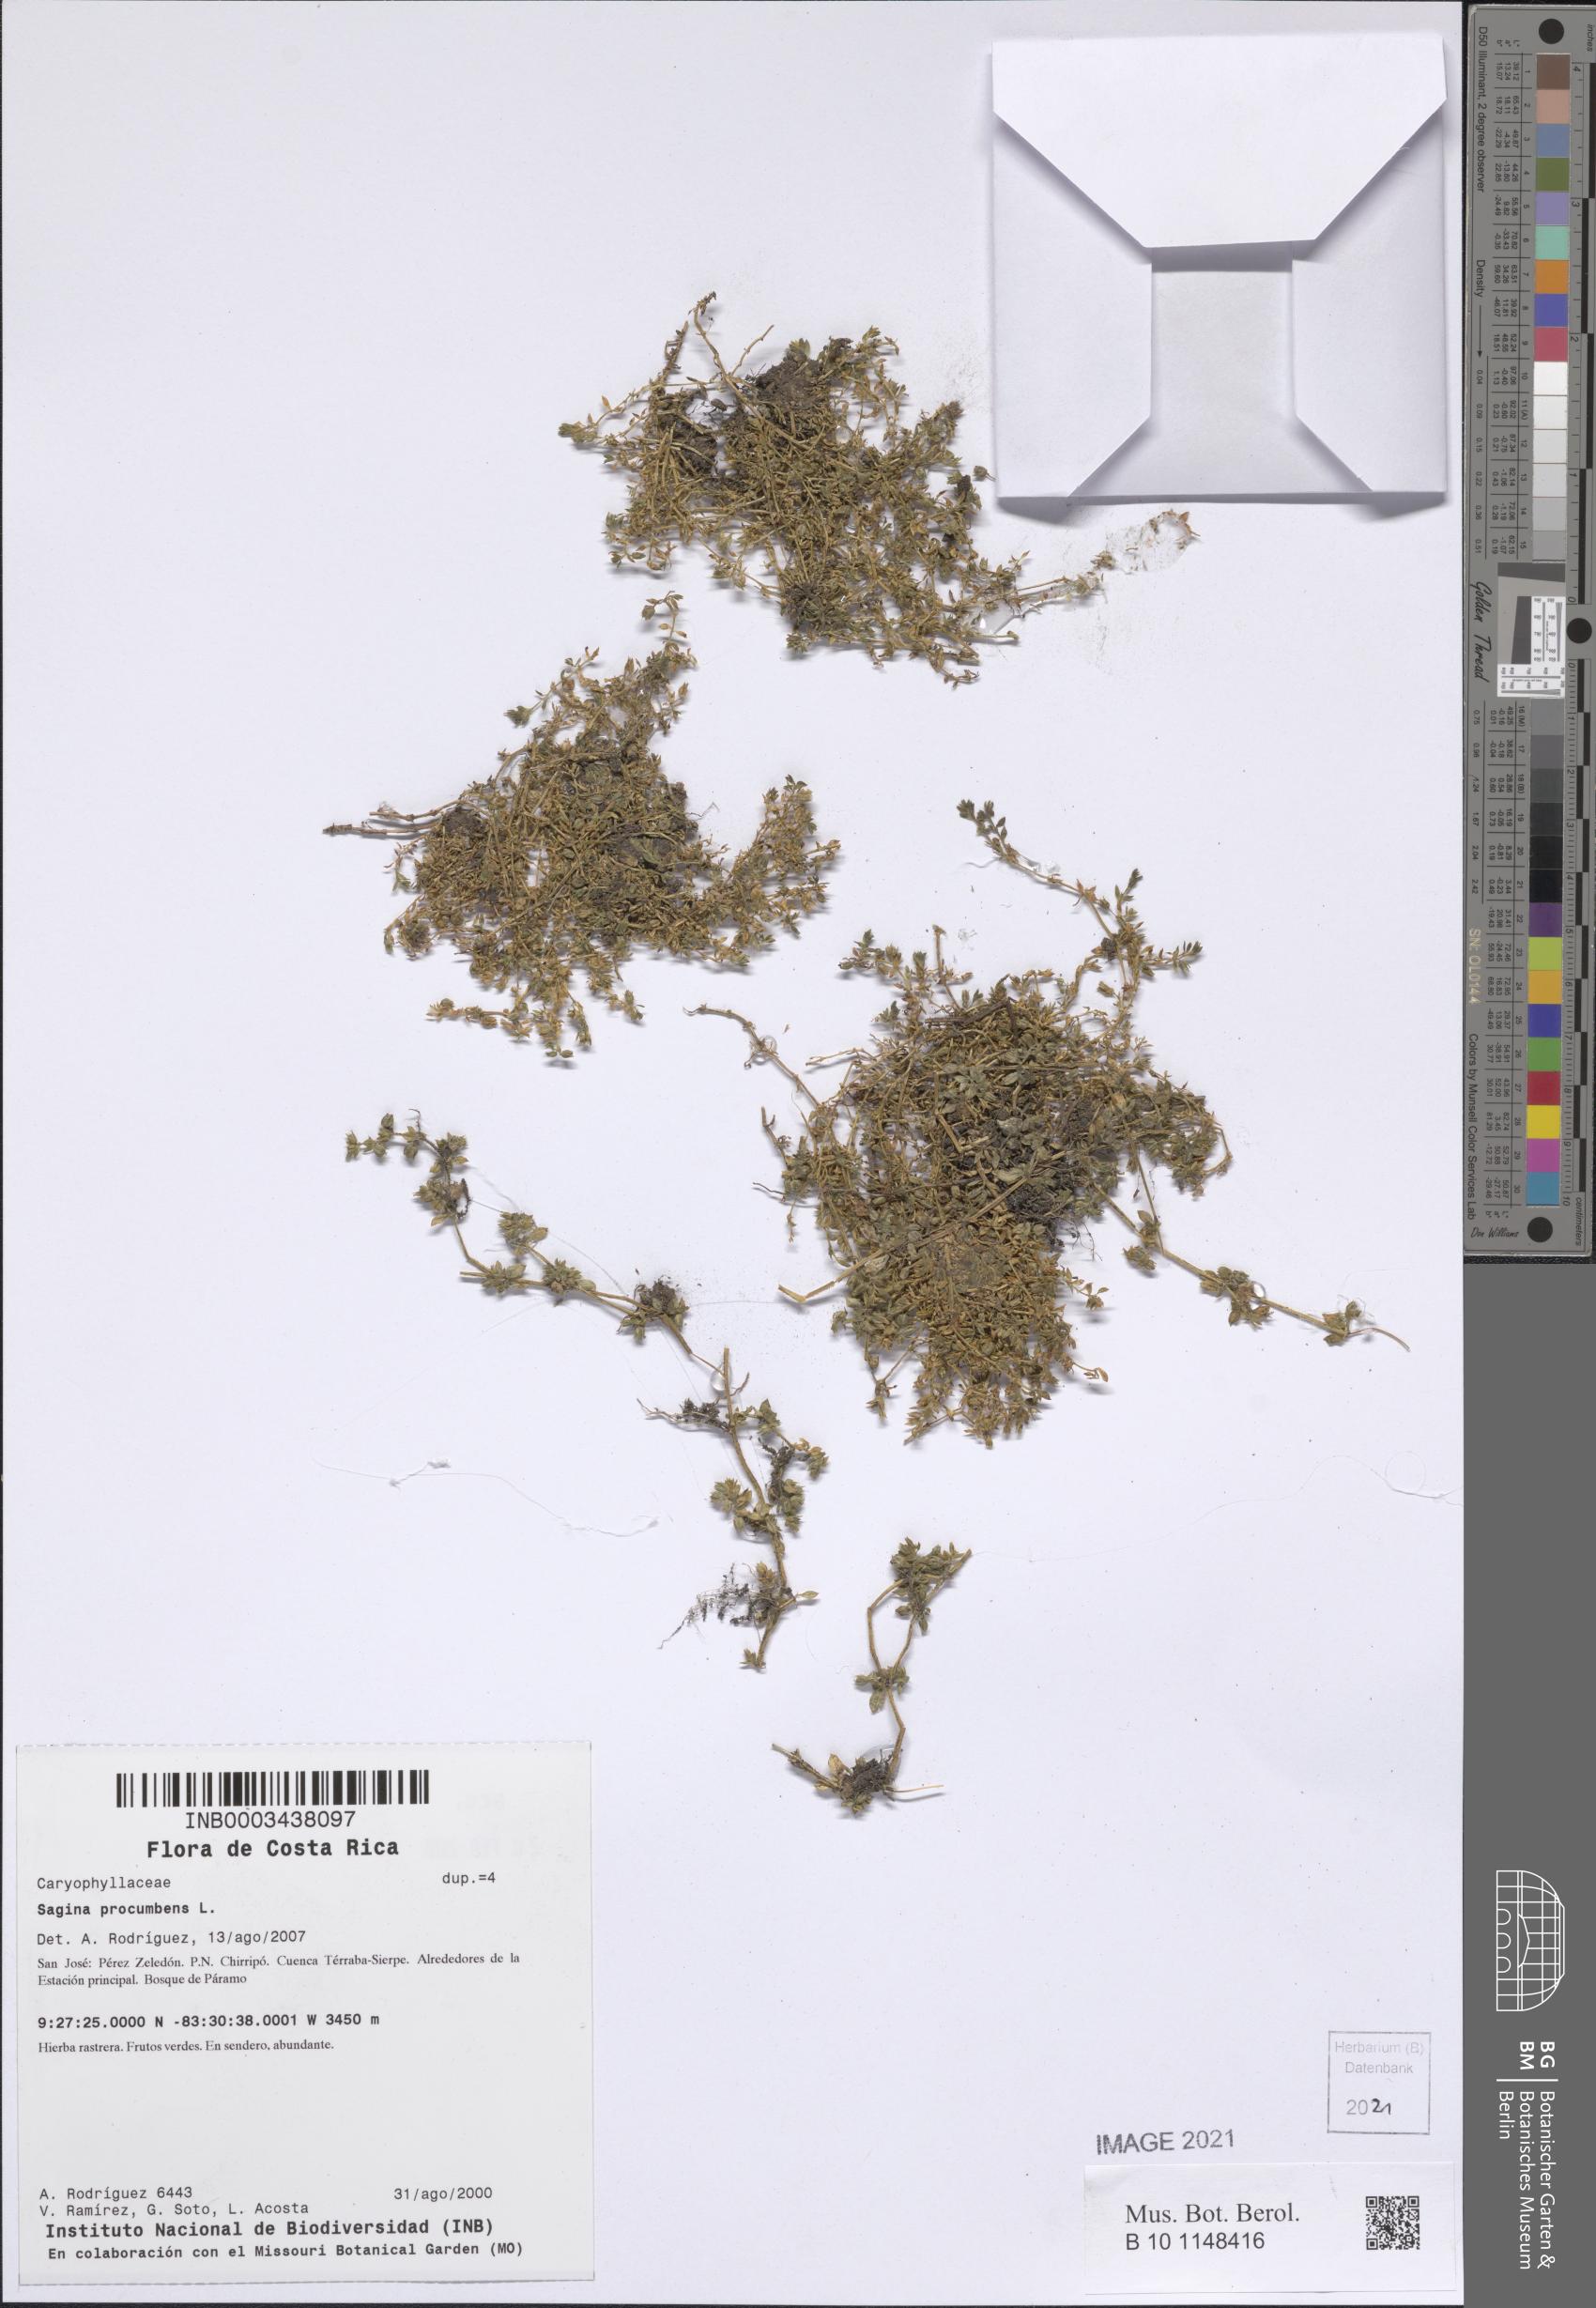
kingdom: Plantae
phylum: Tracheophyta
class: Magnoliopsida
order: Caryophyllales
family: Caryophyllaceae
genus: Arenaria
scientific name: Arenaria reptans
